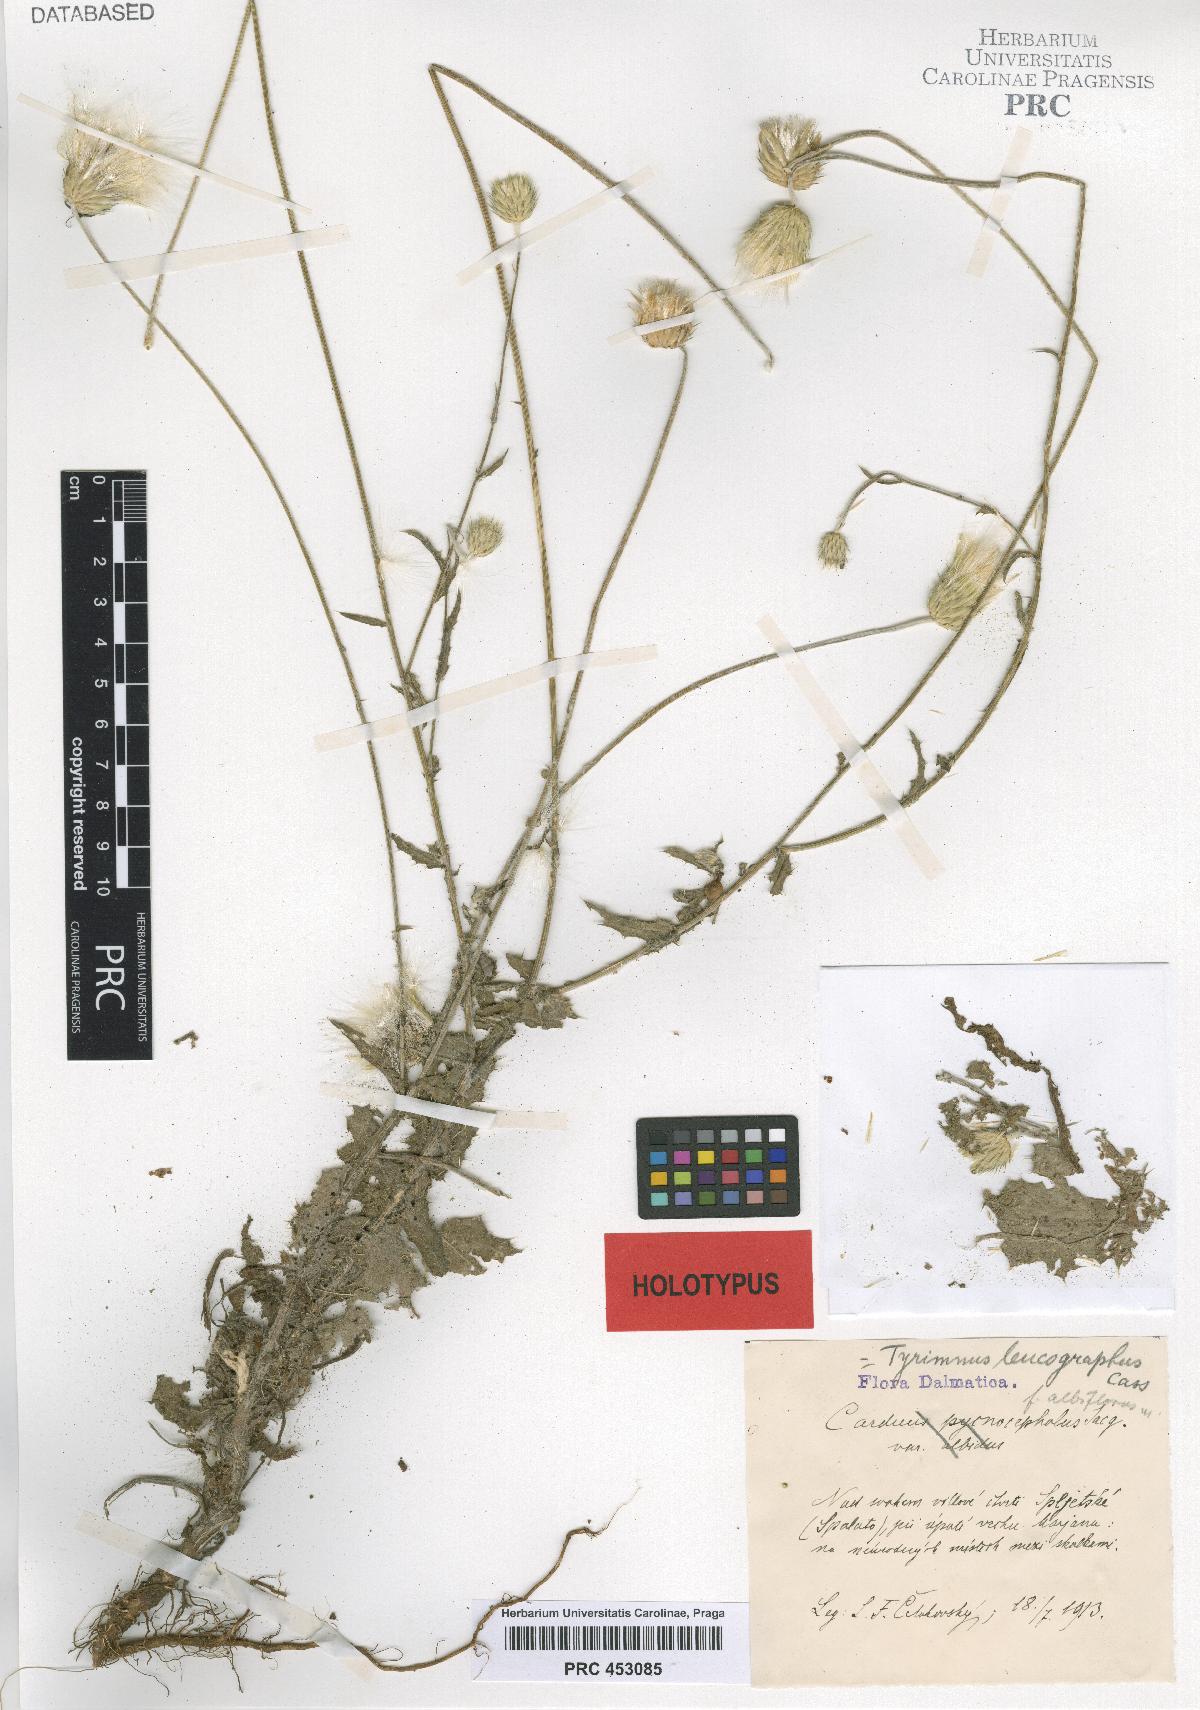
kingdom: Plantae
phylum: Tracheophyta
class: Magnoliopsida
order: Asterales
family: Asteraceae
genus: Tyrimnus
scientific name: Tyrimnus leucographus
